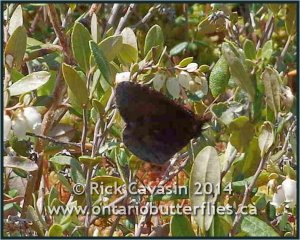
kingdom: Animalia
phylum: Arthropoda
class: Insecta
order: Lepidoptera
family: Nymphalidae
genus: Erebia
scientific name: Erebia discoidalis
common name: Red-disked Alpine
